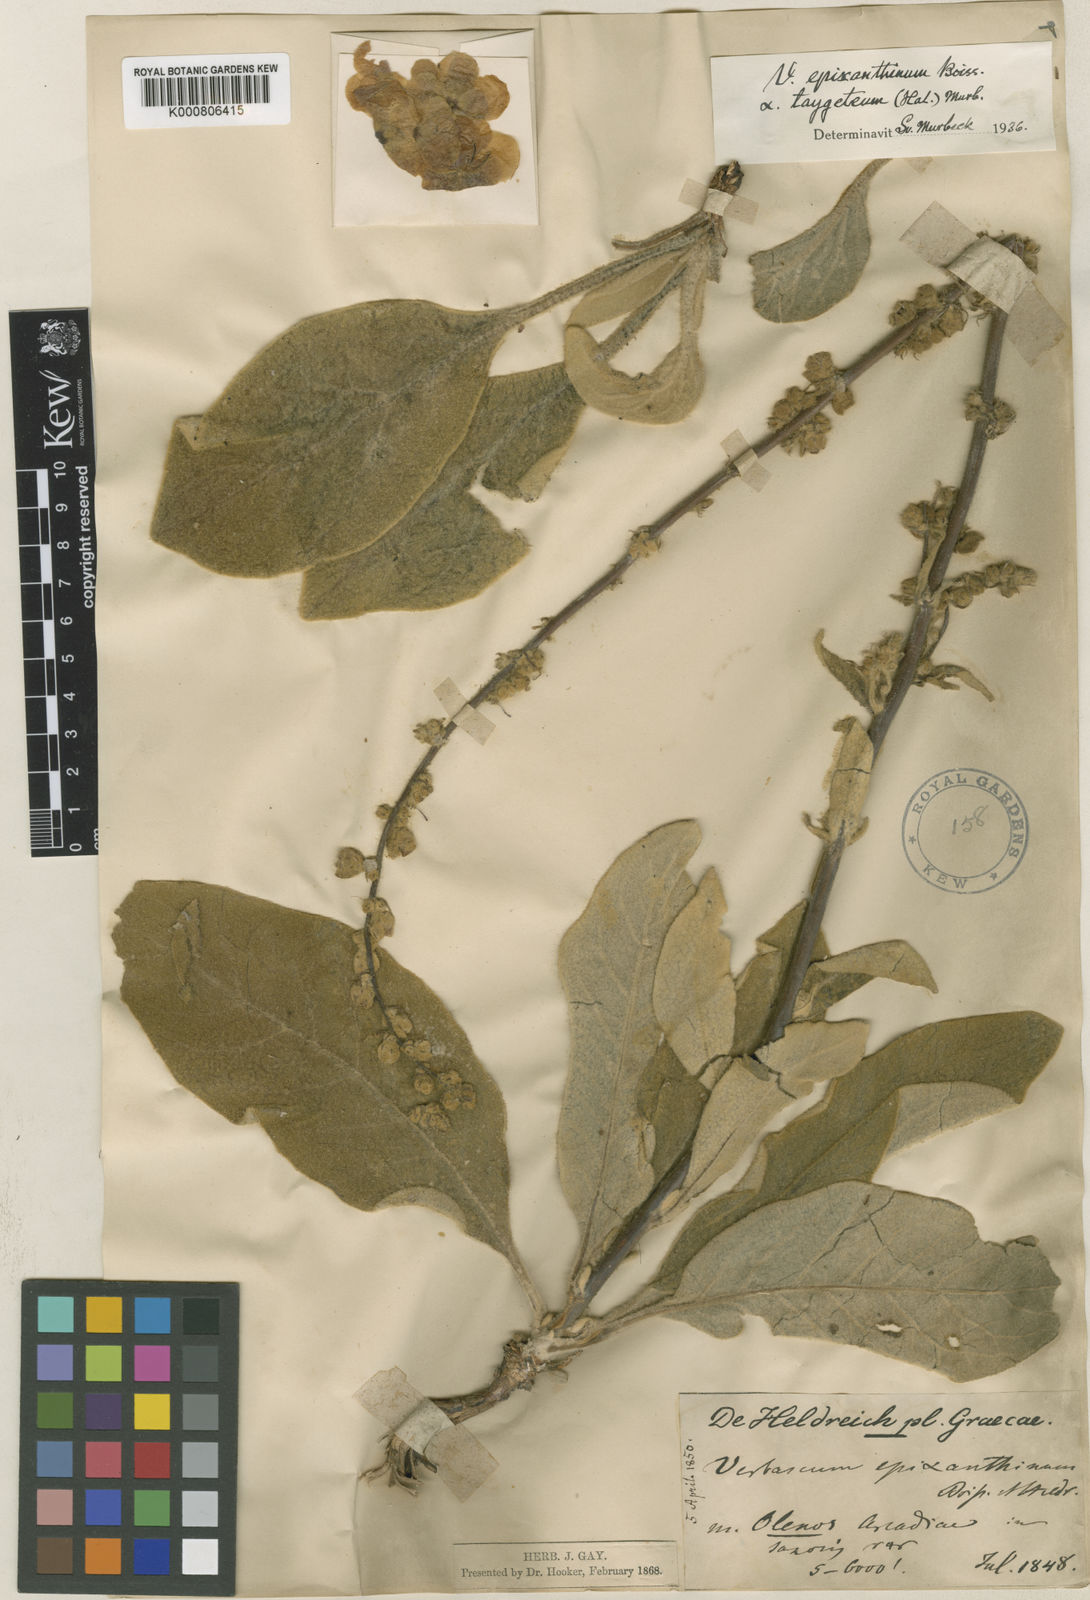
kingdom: Plantae
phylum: Tracheophyta
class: Magnoliopsida
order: Lamiales
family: Scrophulariaceae
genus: Verbascum
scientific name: Verbascum epixanthinum
